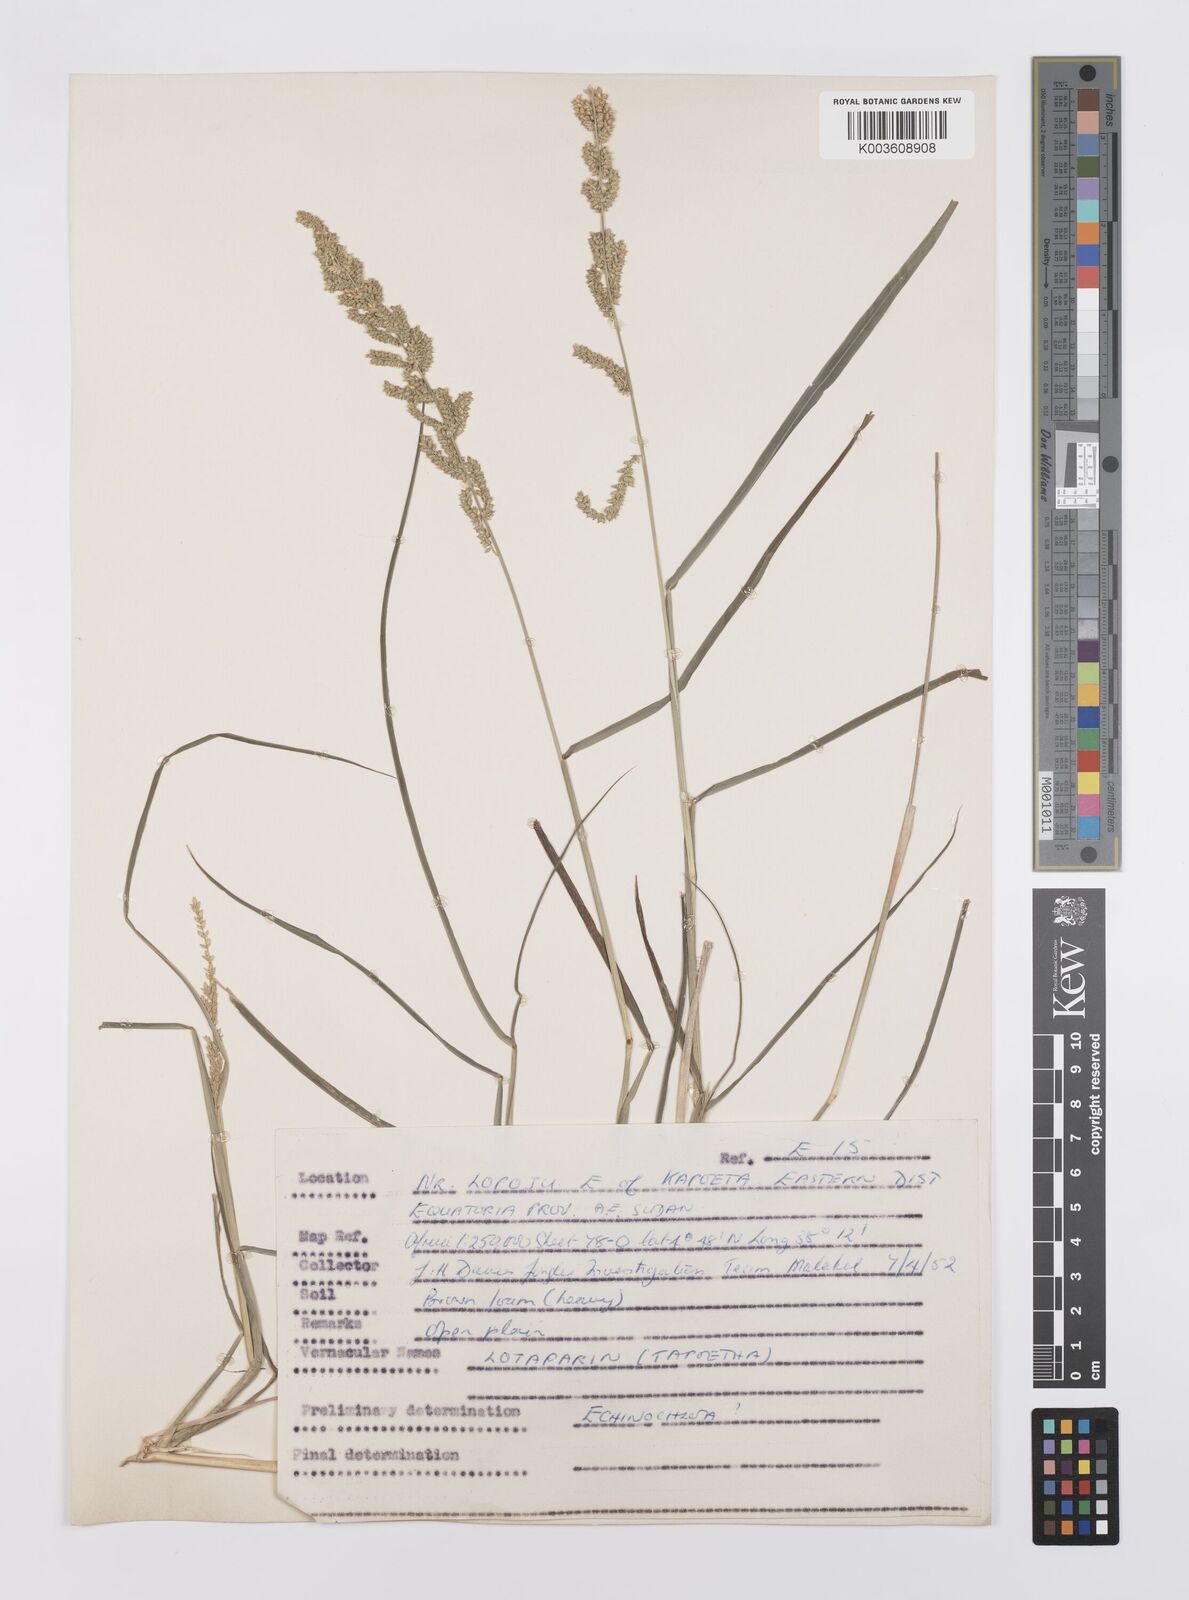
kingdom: Plantae
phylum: Tracheophyta
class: Liliopsida
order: Poales
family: Poaceae
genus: Echinochloa
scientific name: Echinochloa colonum
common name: Jungle rice
